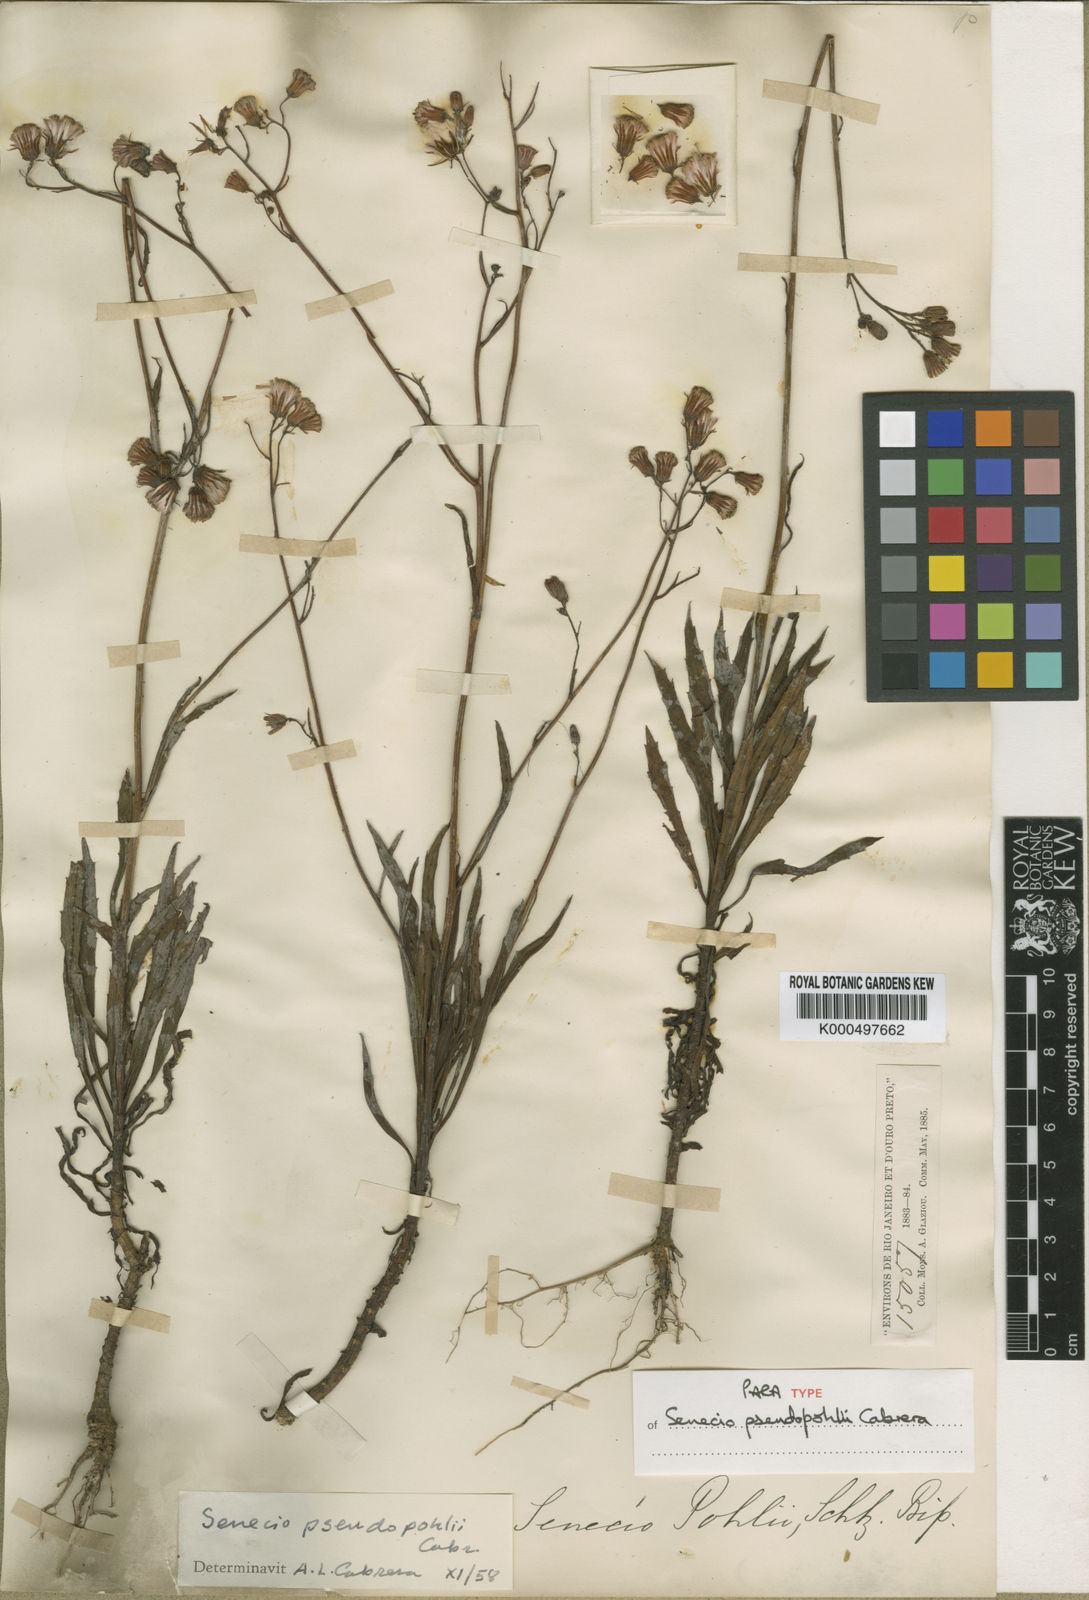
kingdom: Plantae
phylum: Tracheophyta
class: Magnoliopsida
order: Asterales
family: Asteraceae
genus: Senecio
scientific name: Senecio
